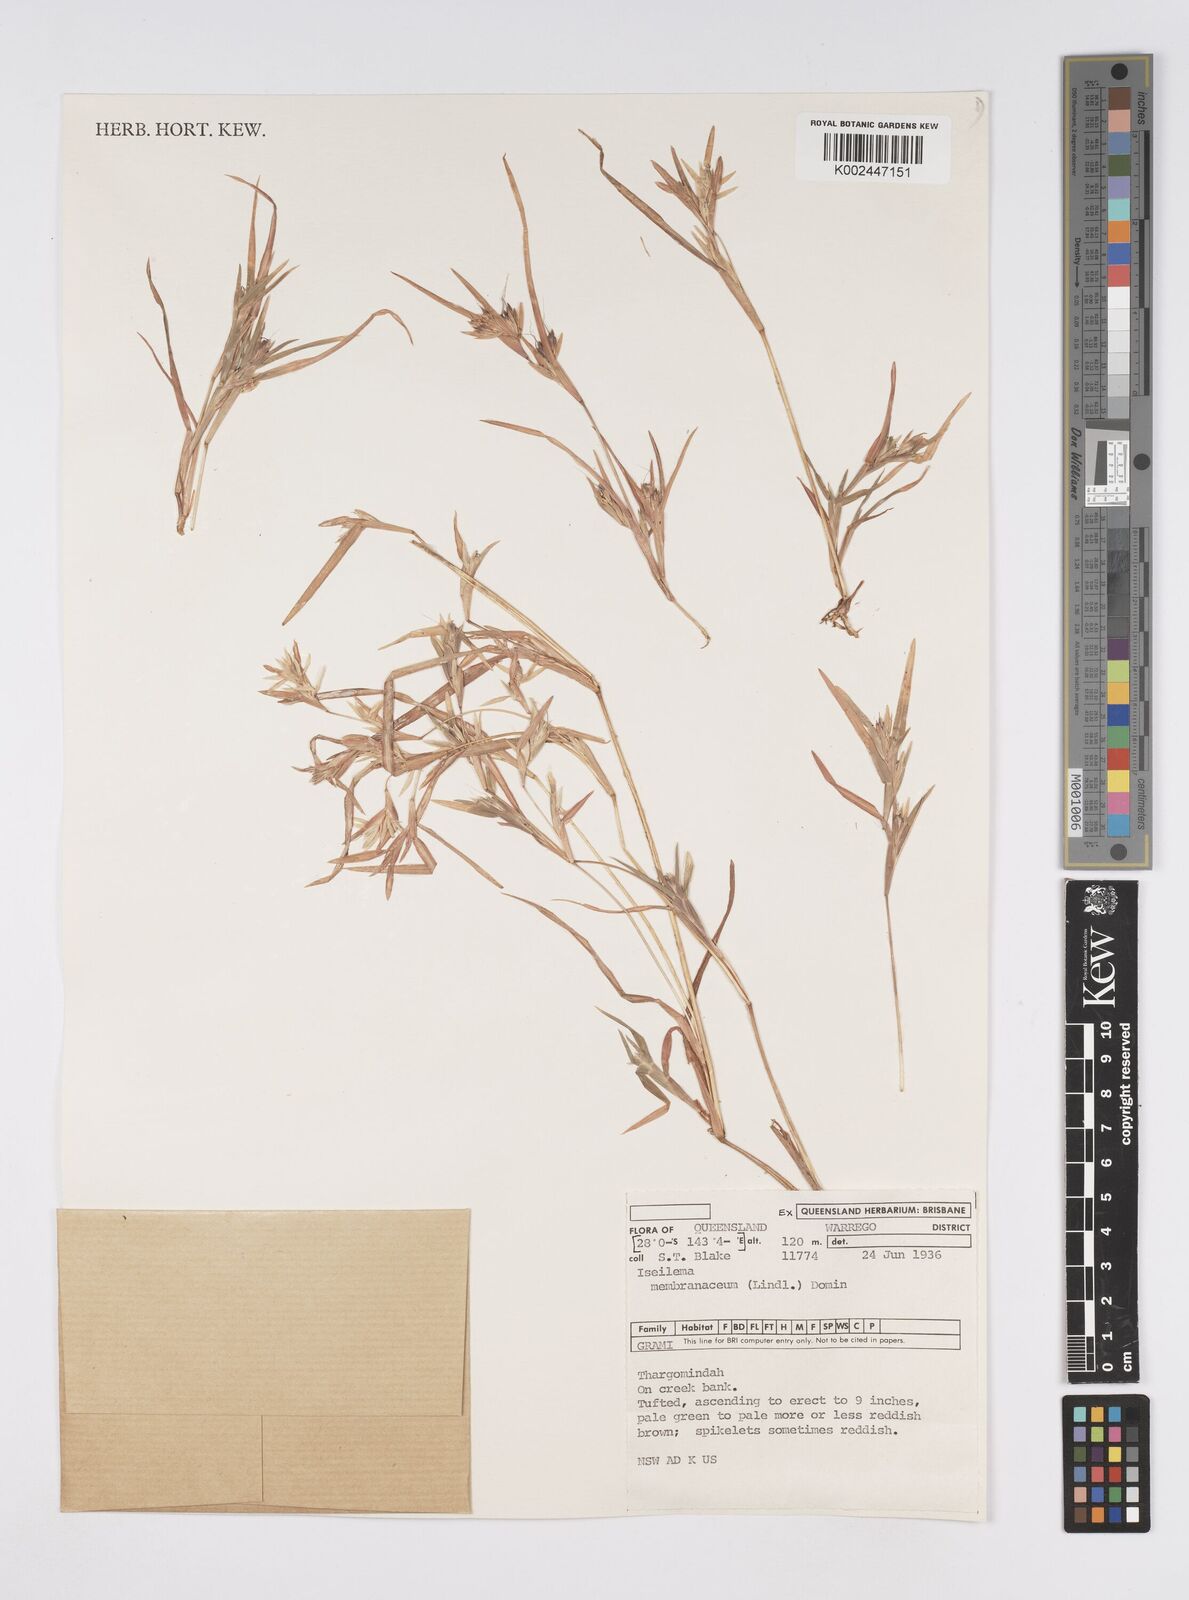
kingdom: Plantae
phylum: Tracheophyta
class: Liliopsida
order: Poales
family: Poaceae
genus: Iseilema
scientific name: Iseilema membranaceum
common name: Small flinders grass
